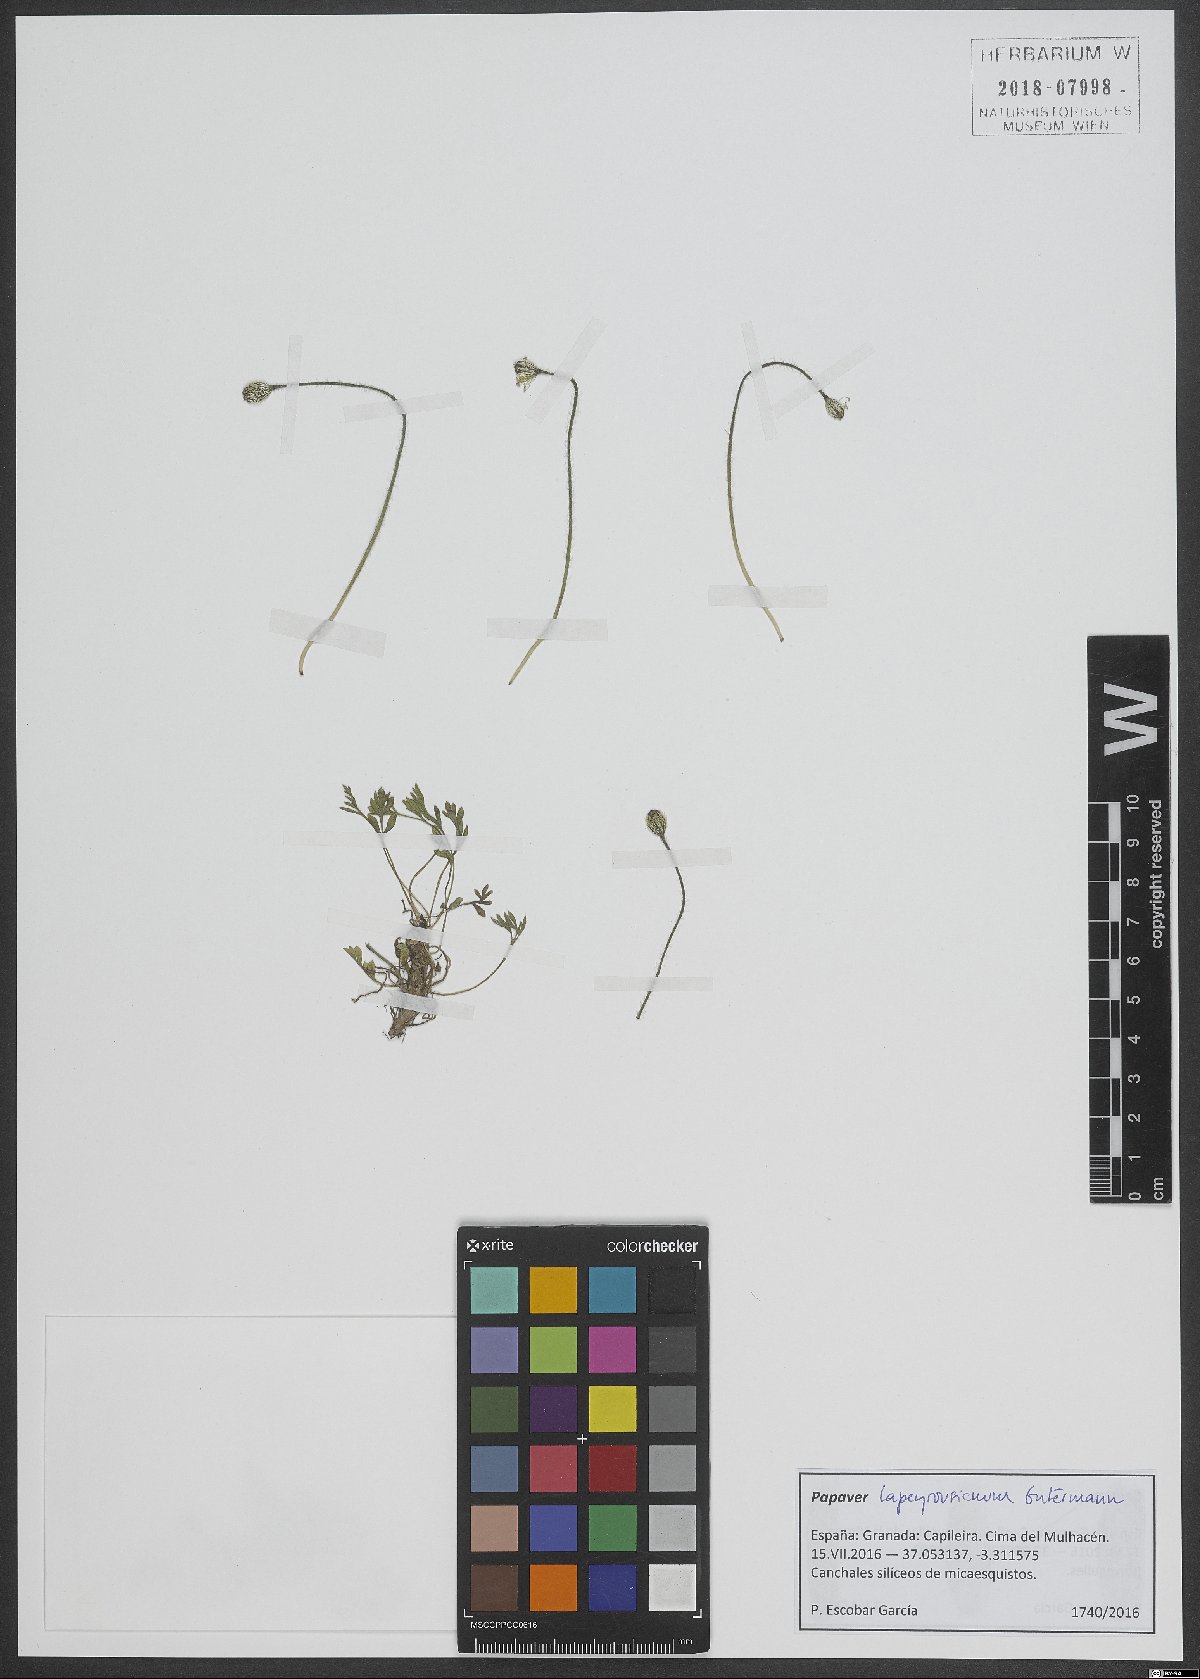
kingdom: Plantae
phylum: Tracheophyta
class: Magnoliopsida
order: Ranunculales
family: Papaveraceae
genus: Papaver
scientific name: Papaver alpinum
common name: Austrian poppy
